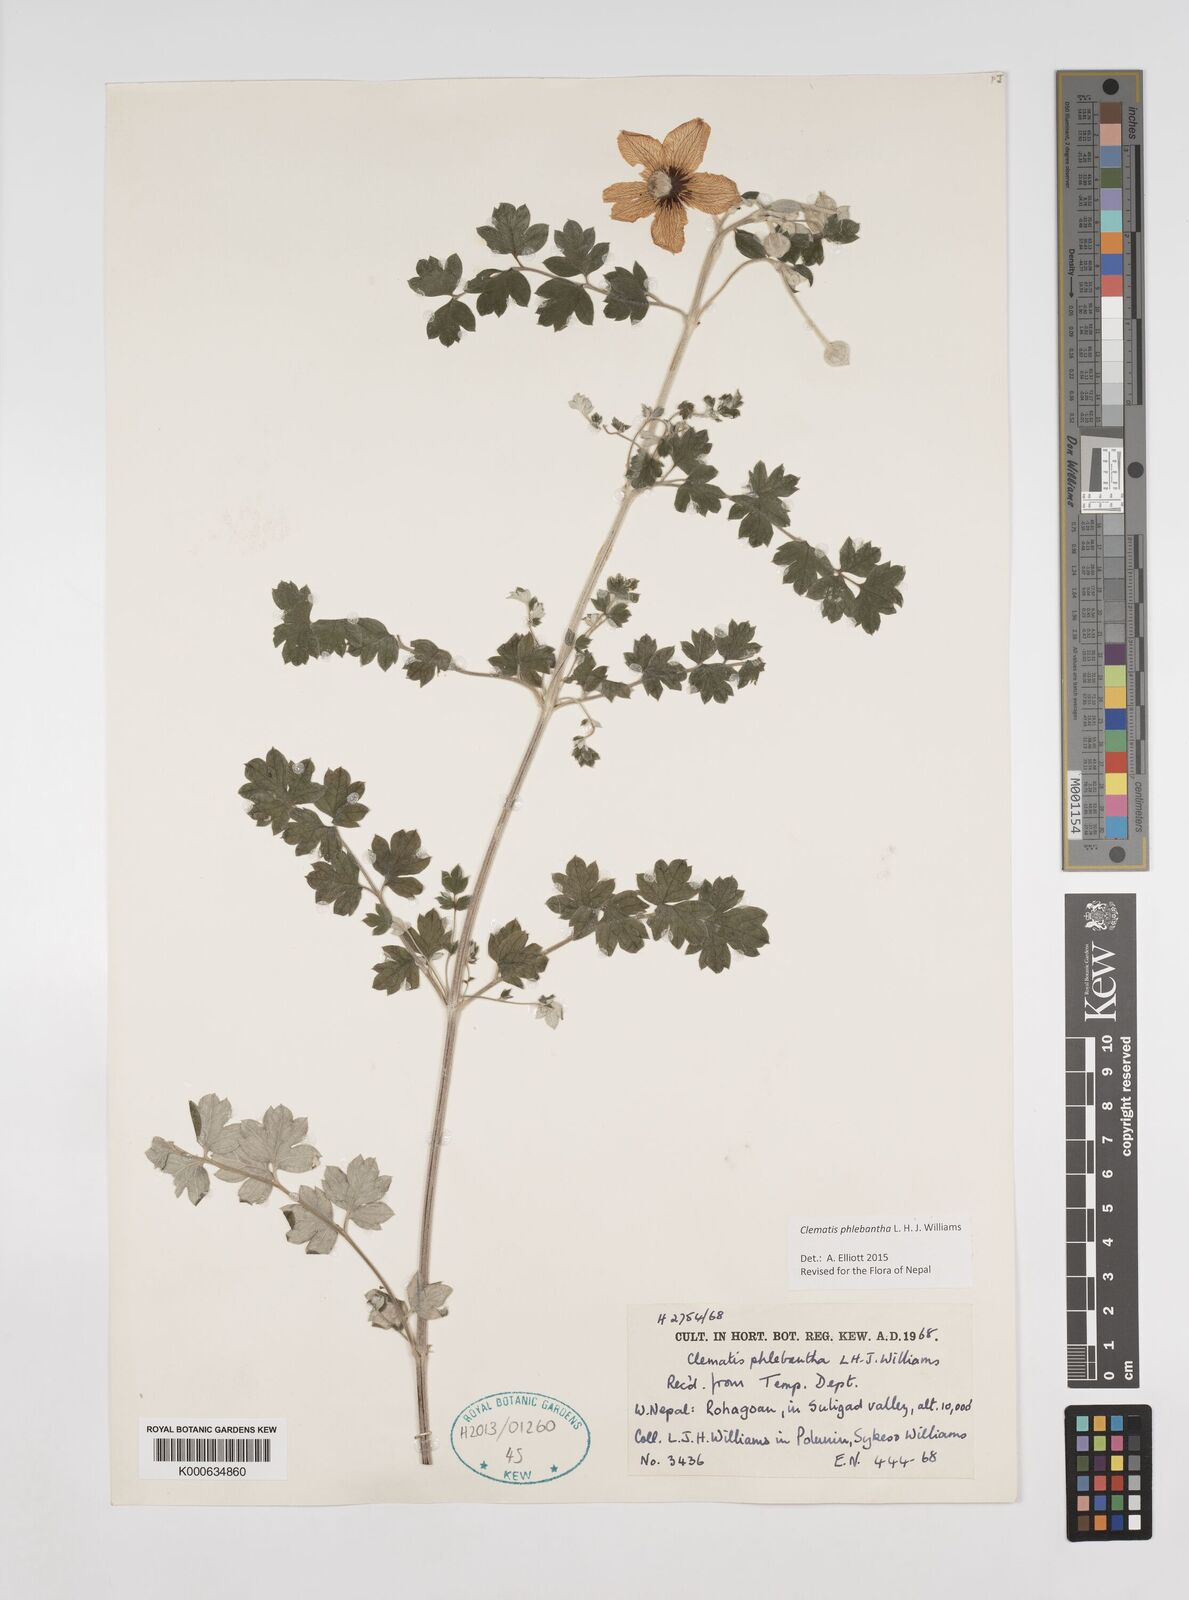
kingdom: Plantae
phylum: Tracheophyta
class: Magnoliopsida
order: Ranunculales
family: Ranunculaceae
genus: Clematis
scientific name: Clematis phlebantha
